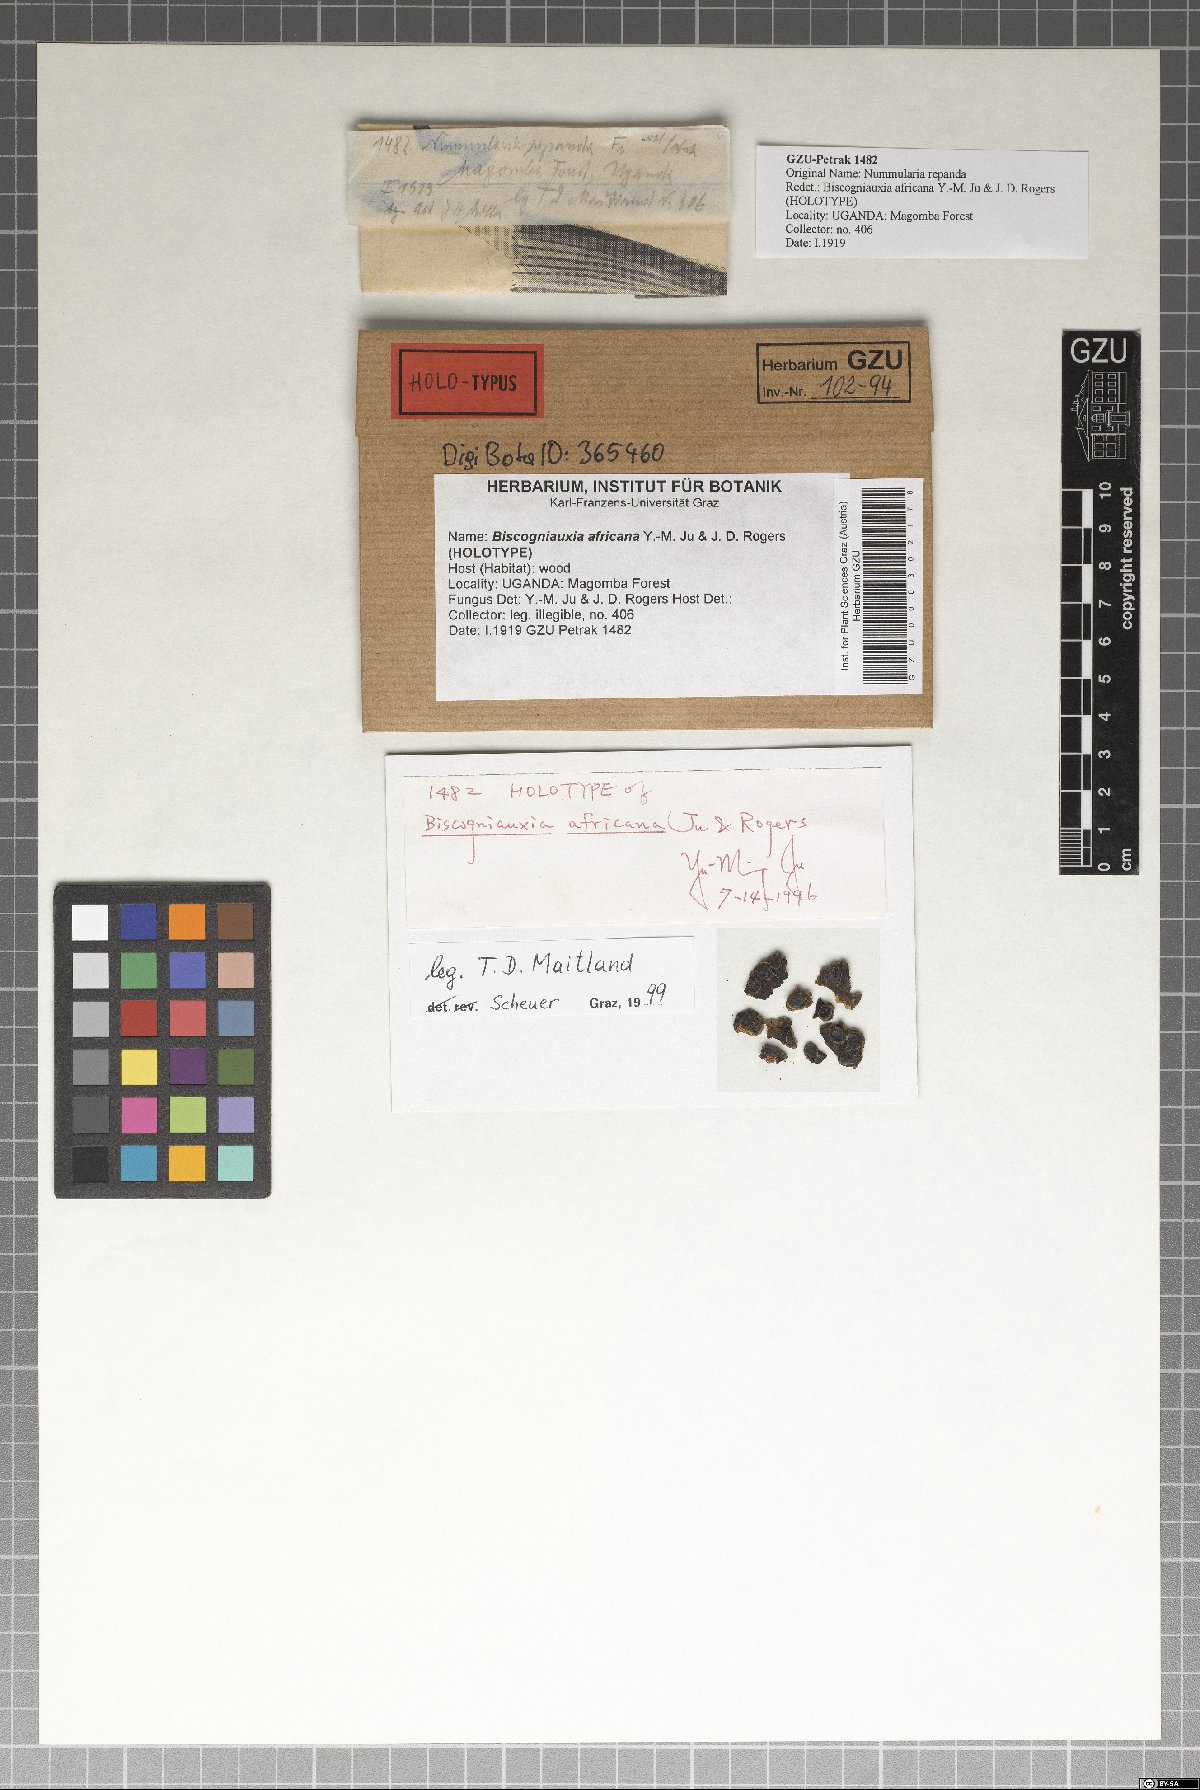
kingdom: Fungi
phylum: Ascomycota
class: Sordariomycetes
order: Xylariales
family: Graphostromataceae
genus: Biscogniauxia
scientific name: Biscogniauxia africana
